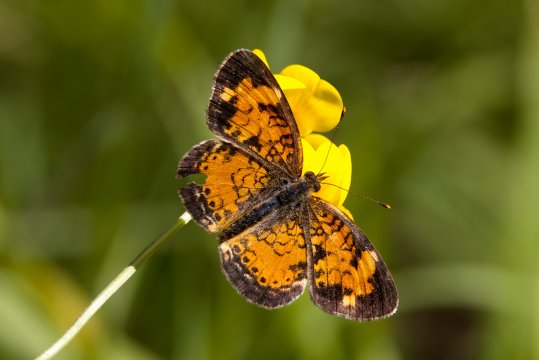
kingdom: Animalia
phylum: Arthropoda
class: Insecta
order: Lepidoptera
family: Nymphalidae
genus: Phyciodes
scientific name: Phyciodes tharos
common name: Northern Crescent
